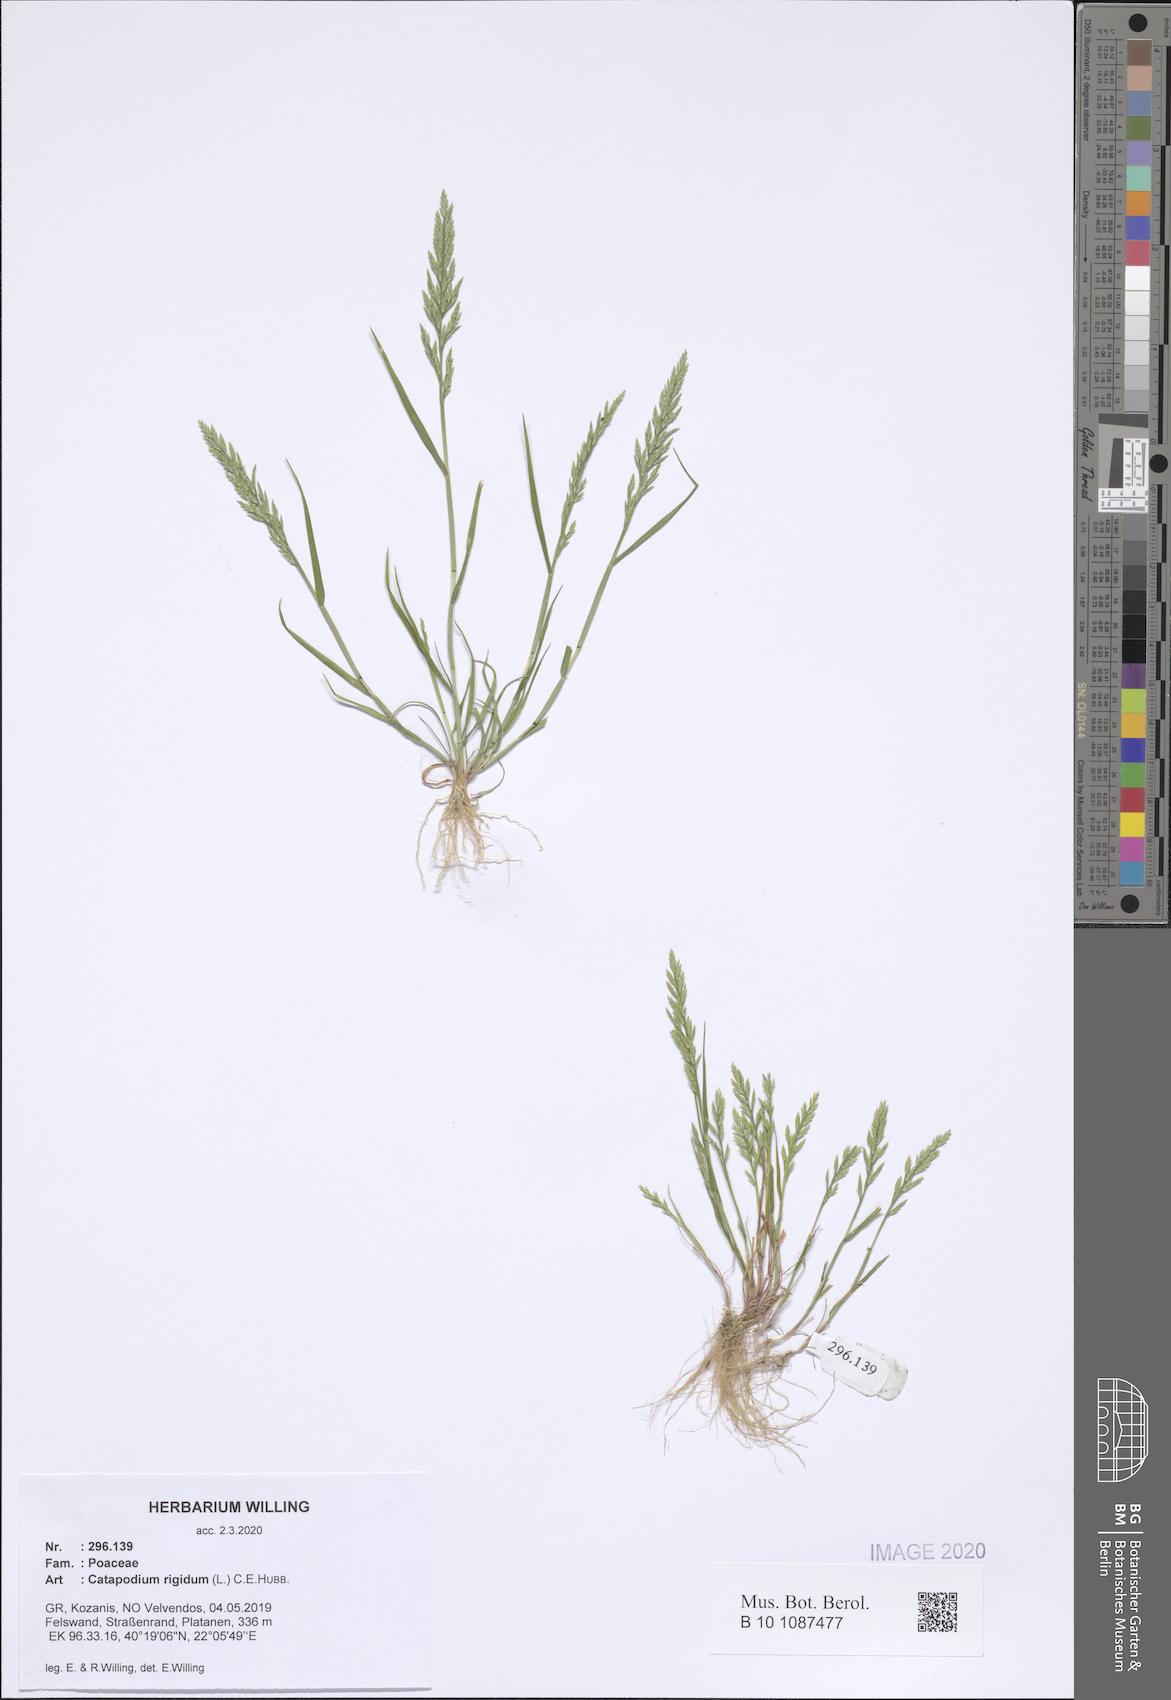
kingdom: Plantae
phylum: Tracheophyta
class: Liliopsida
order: Poales
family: Poaceae
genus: Catapodium
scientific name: Catapodium rigidum
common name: Fern-grass
